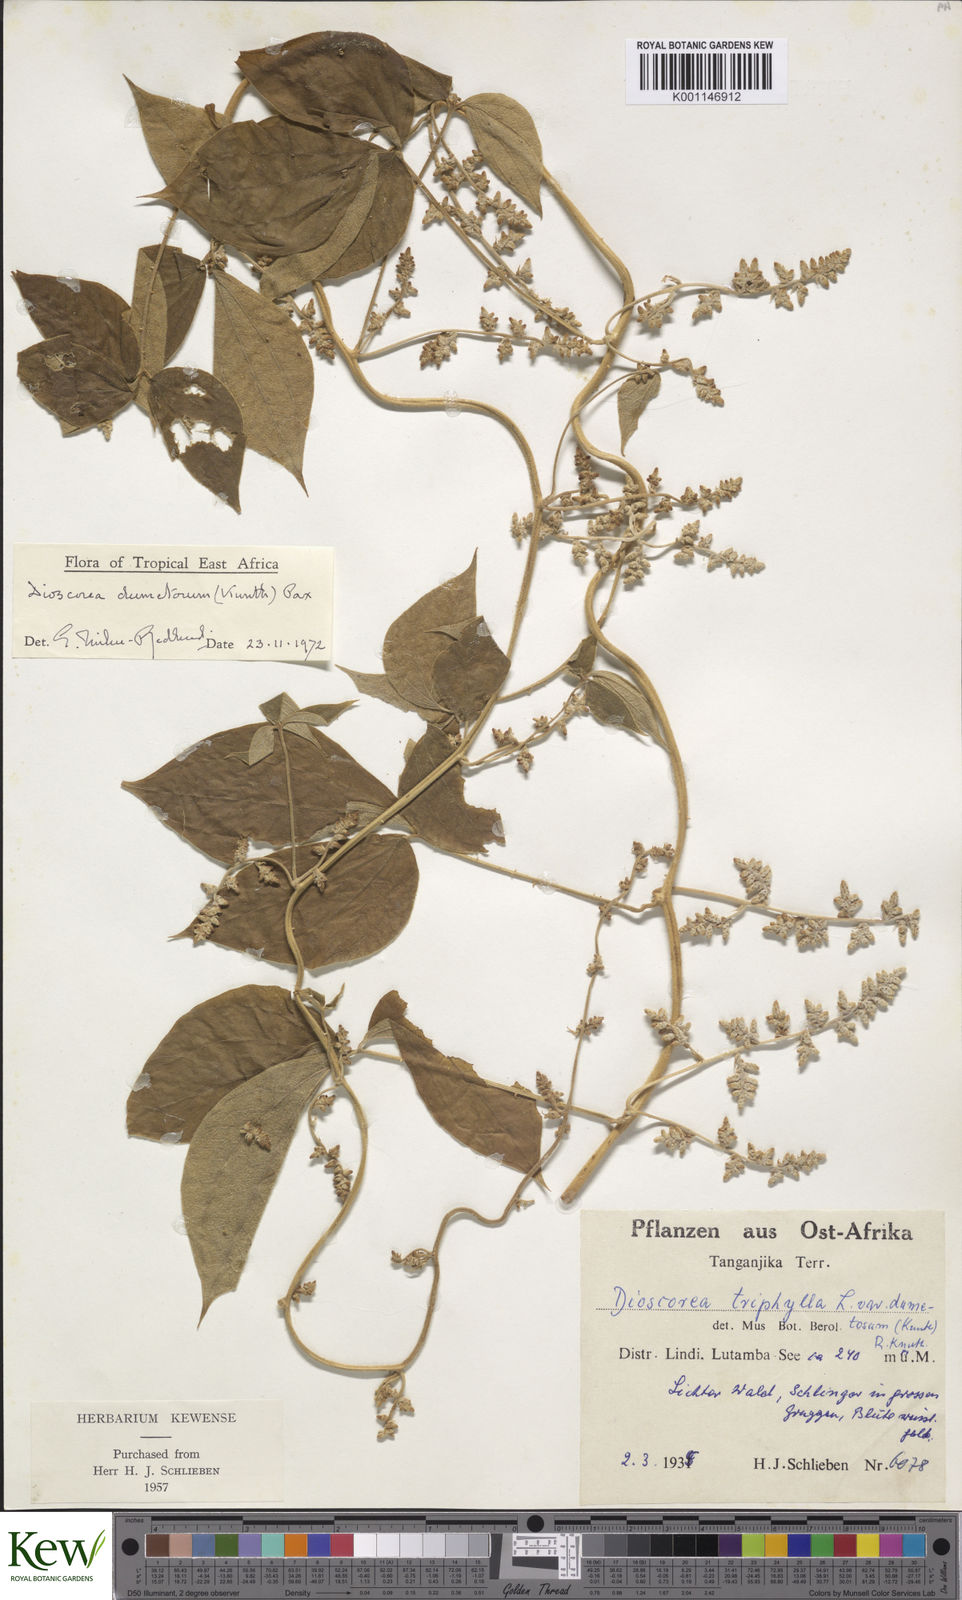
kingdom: Plantae
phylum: Tracheophyta
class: Liliopsida
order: Dioscoreales
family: Dioscoreaceae
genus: Dioscorea
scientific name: Dioscorea dumetorum
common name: African bitter yam
